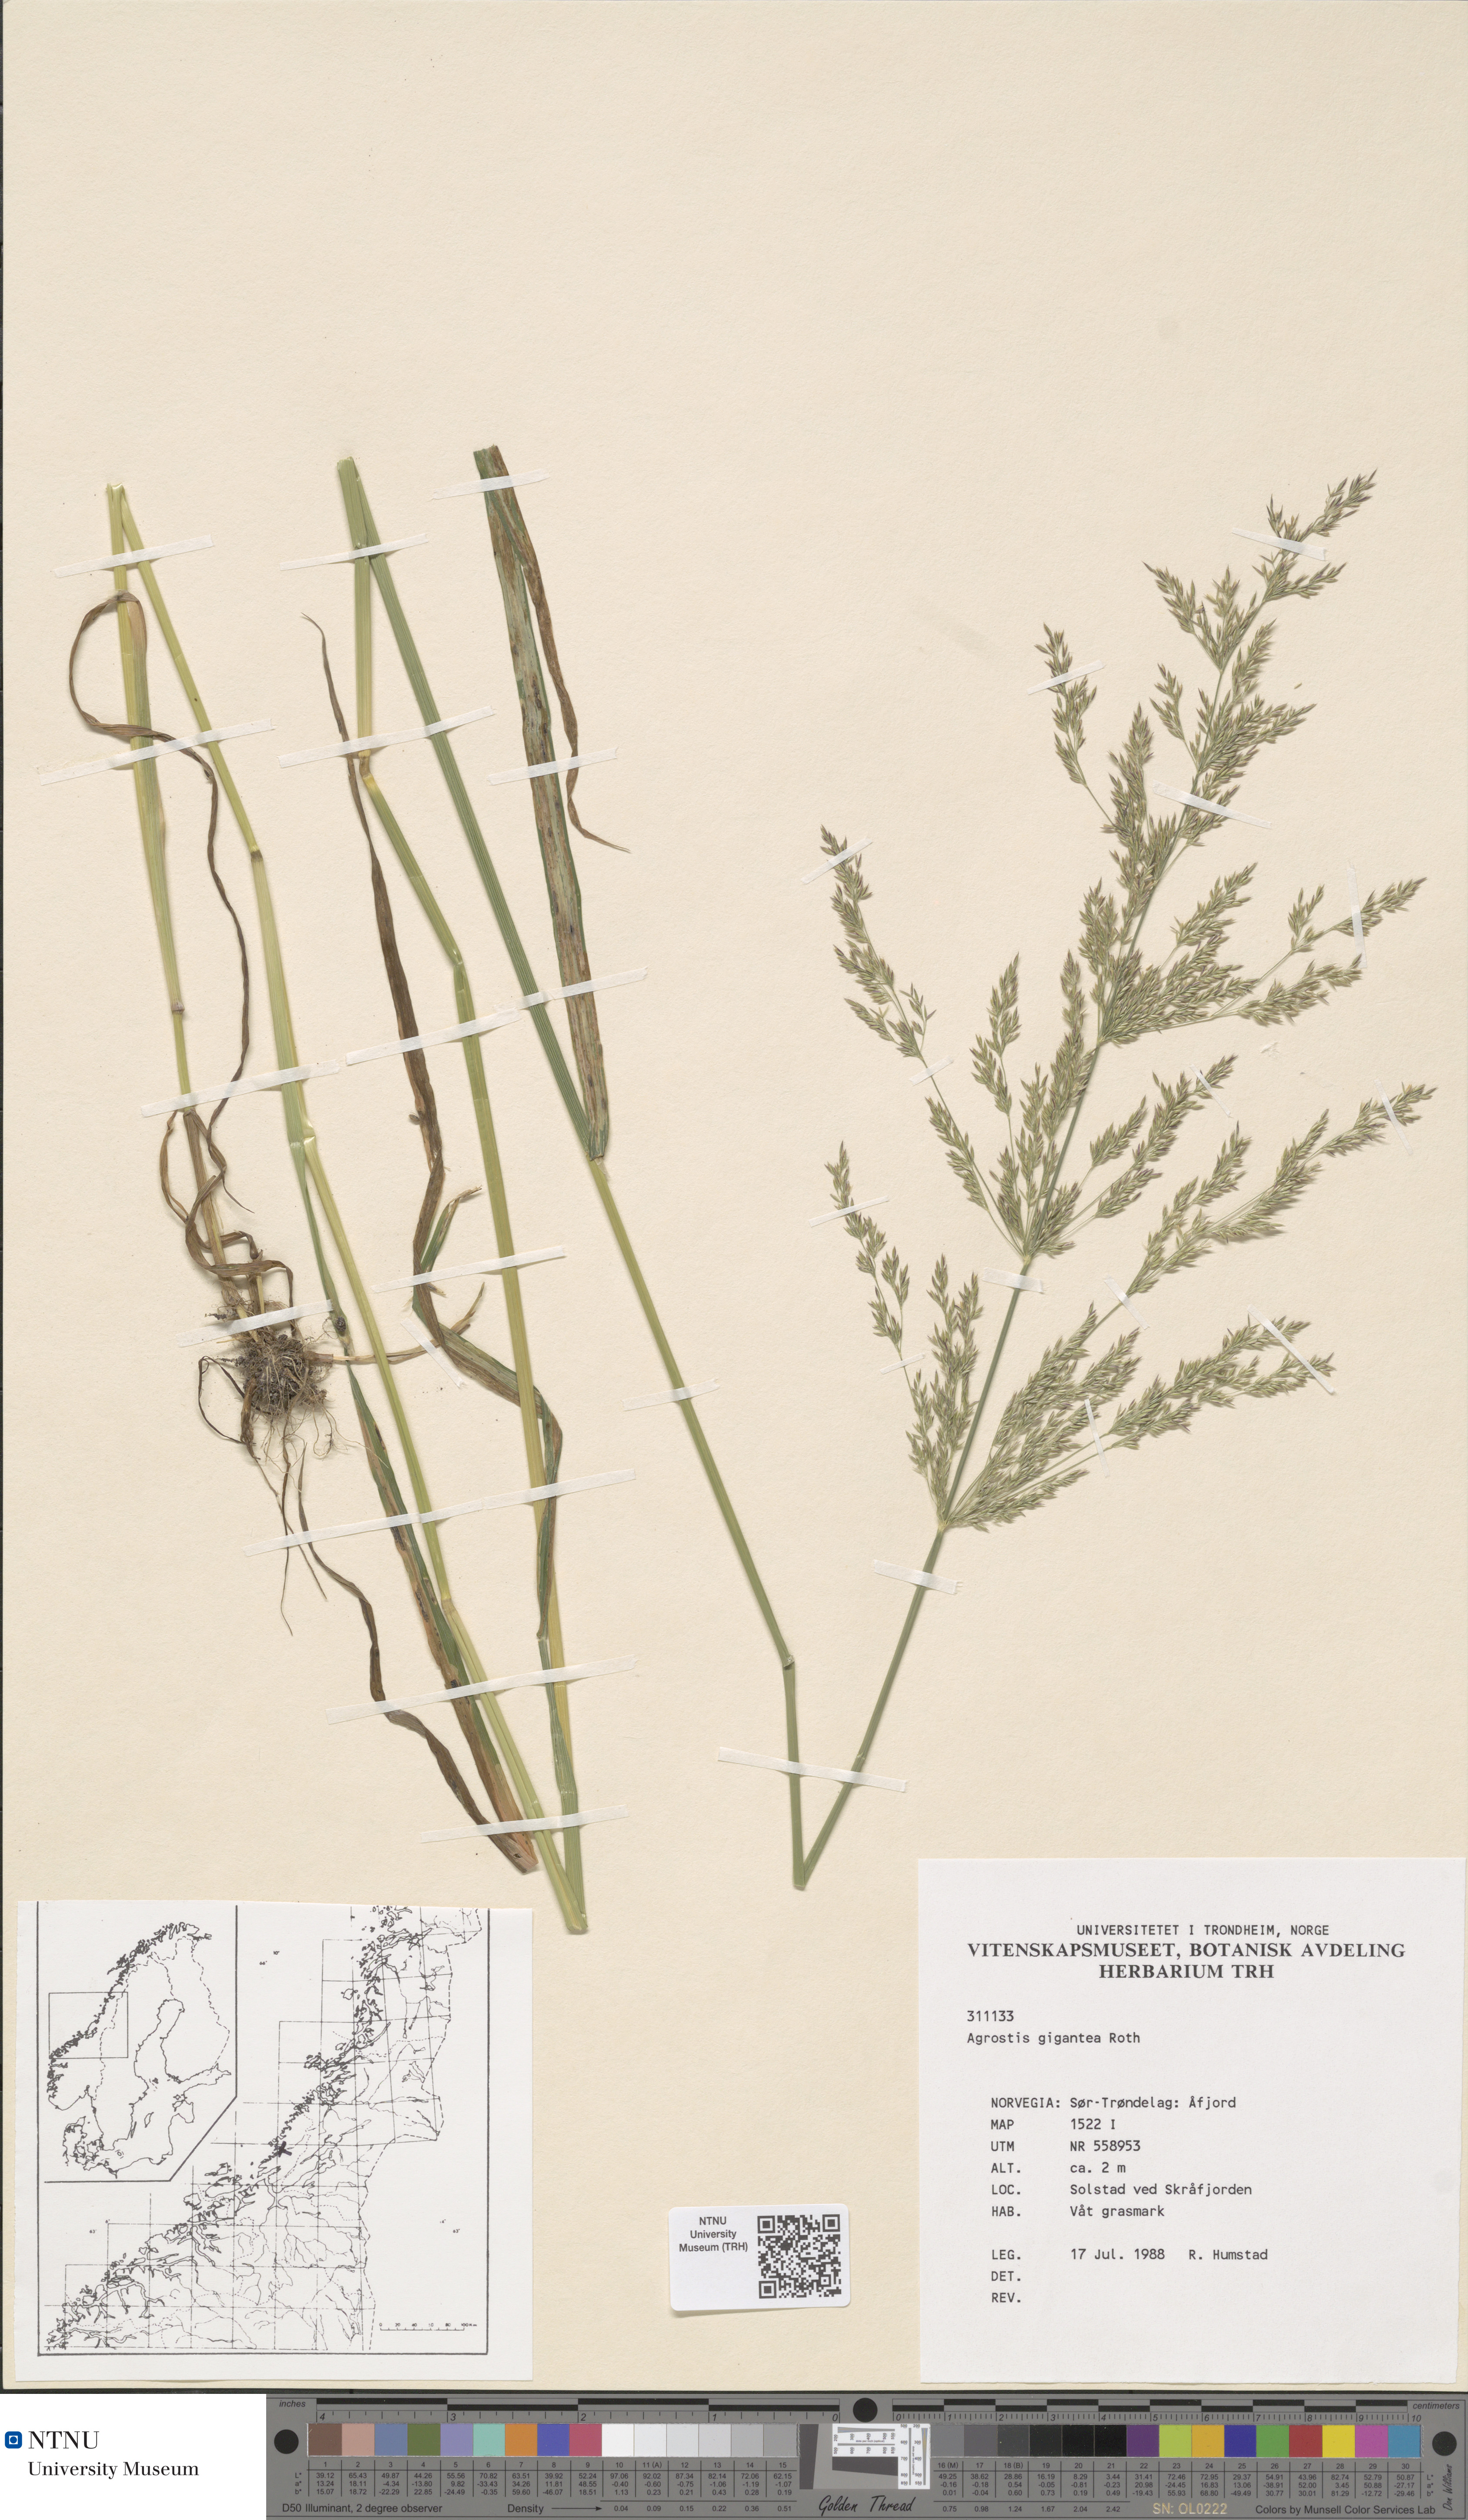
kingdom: Plantae
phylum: Tracheophyta
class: Liliopsida
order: Poales
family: Poaceae
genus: Agrostis
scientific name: Agrostis gigantea
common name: Black bent
